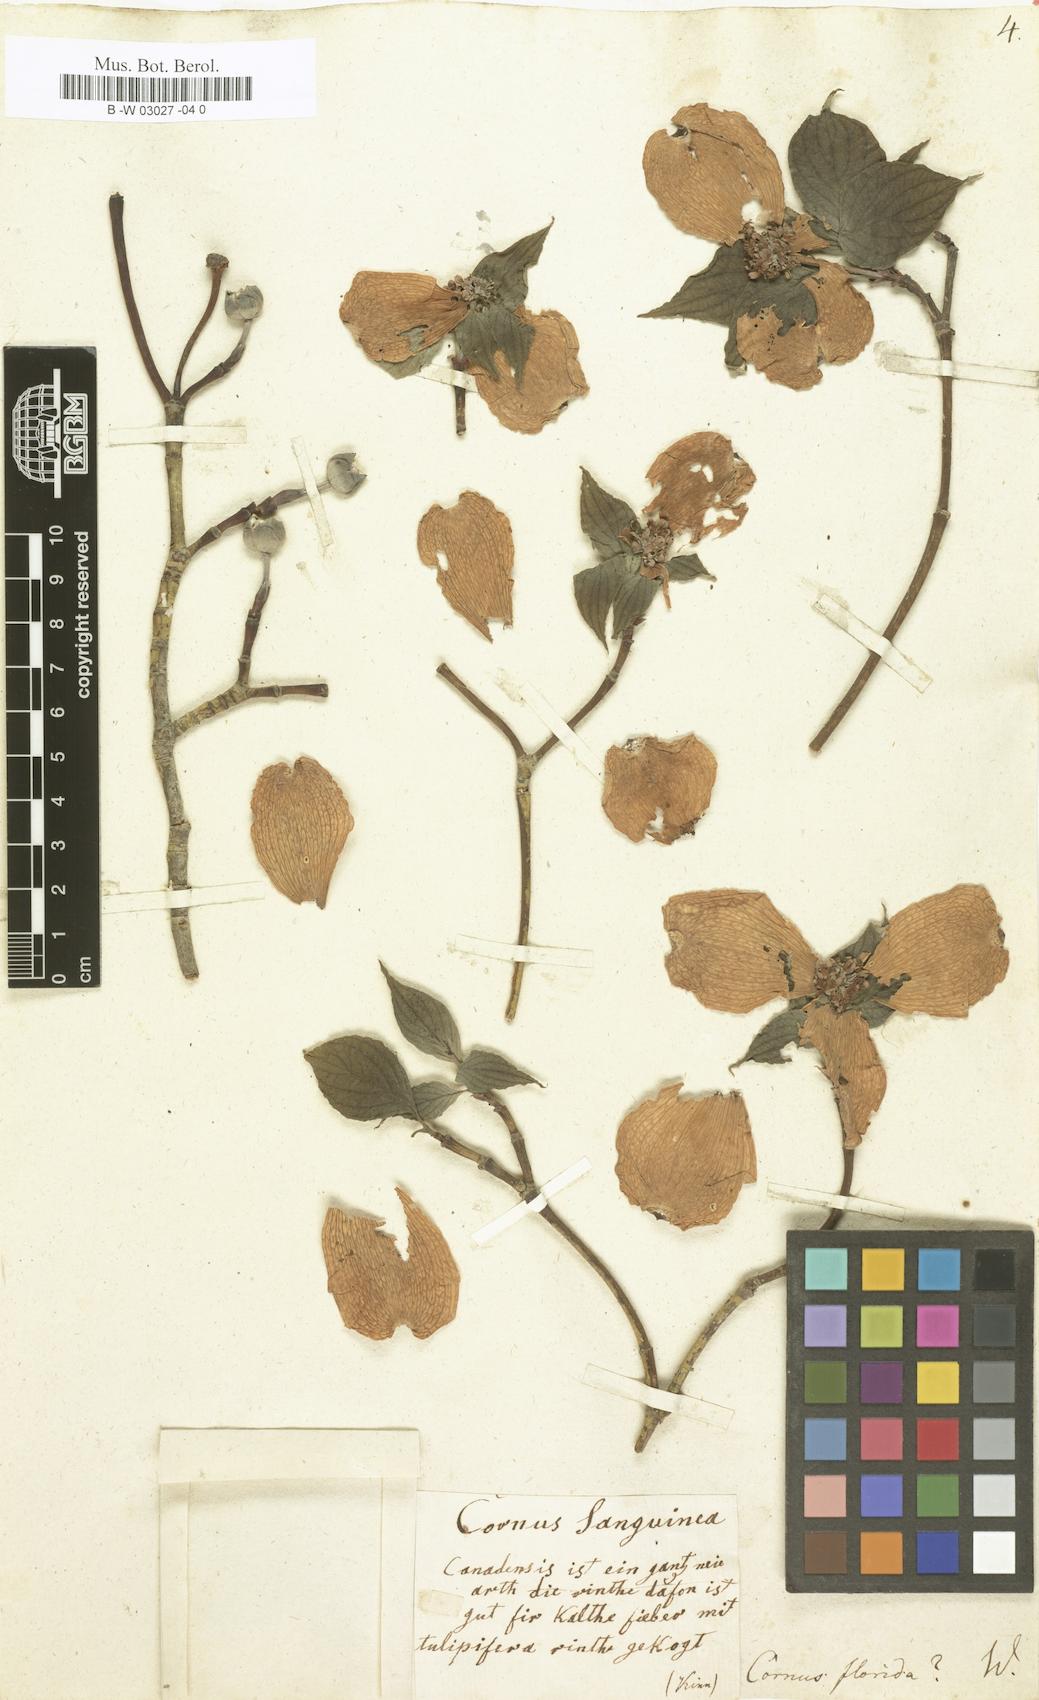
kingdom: Plantae
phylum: Tracheophyta
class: Magnoliopsida
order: Cornales
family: Cornaceae
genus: Cornus
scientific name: Cornus florida
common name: Flowering dogwood
